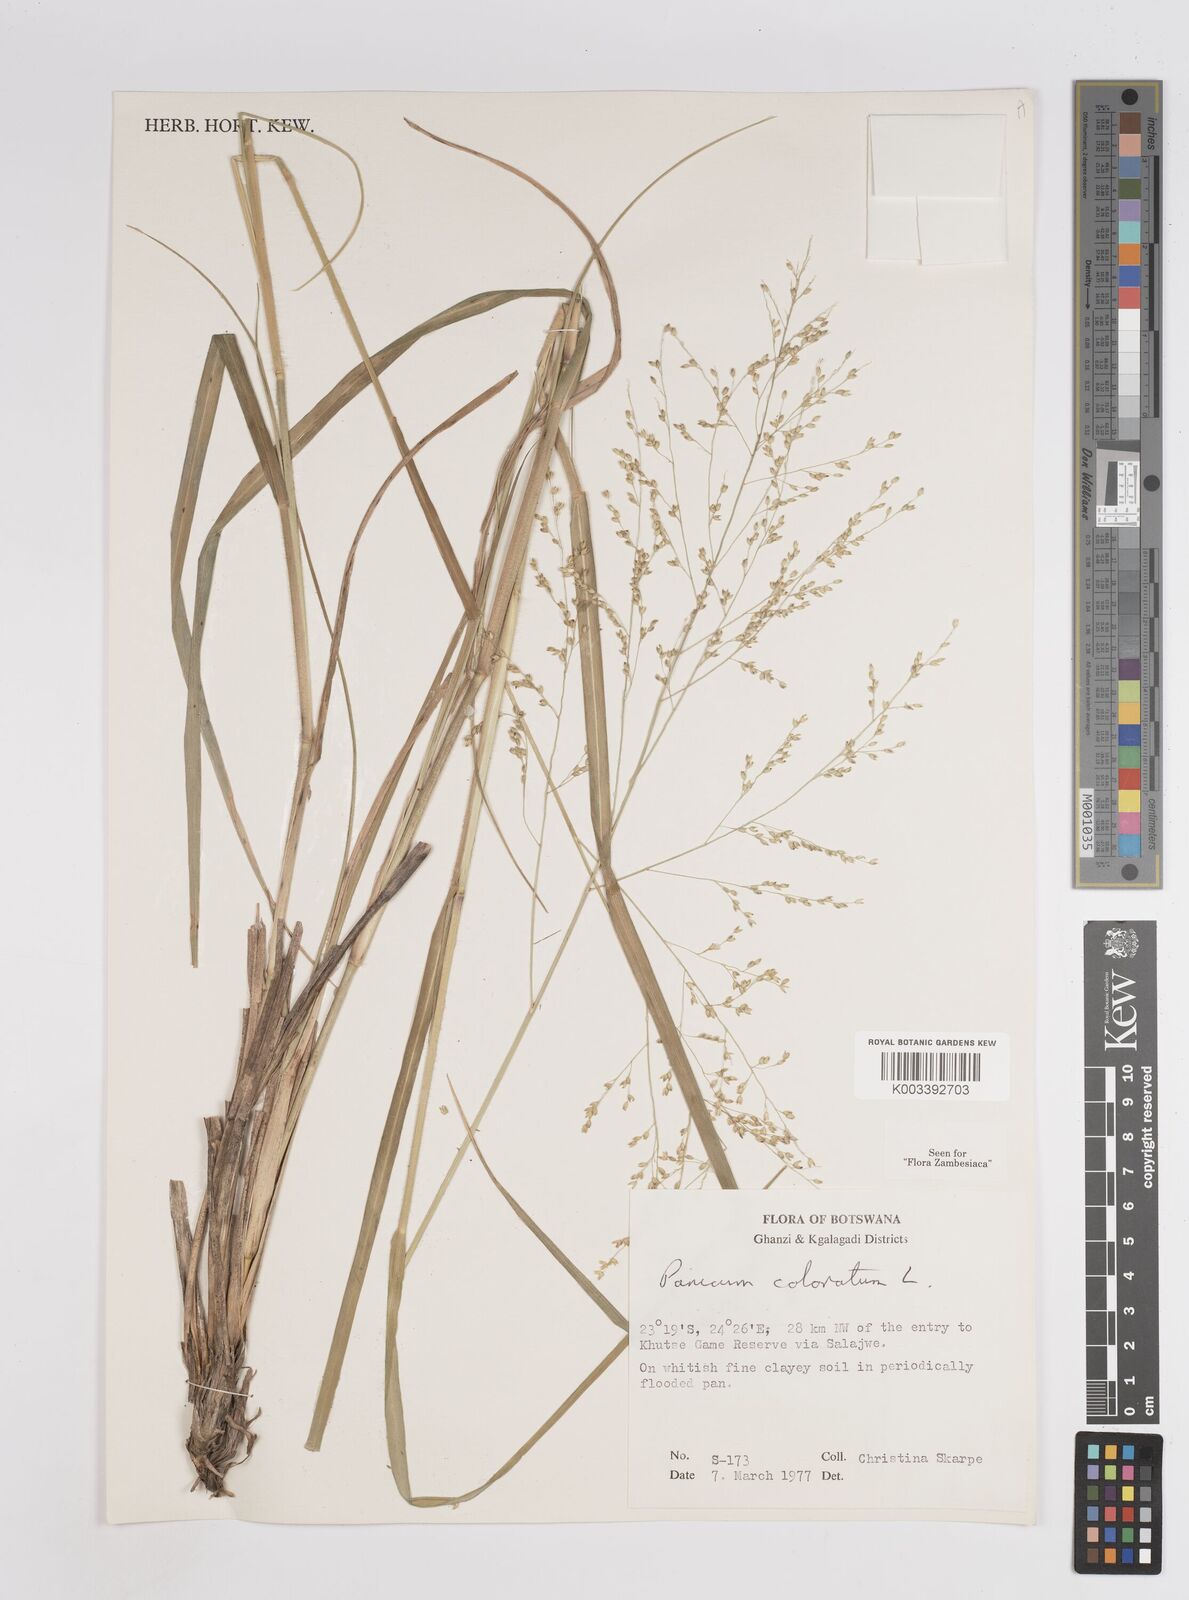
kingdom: Plantae
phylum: Tracheophyta
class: Liliopsida
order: Poales
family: Poaceae
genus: Panicum
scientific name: Panicum coloratum
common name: Kleingrass
